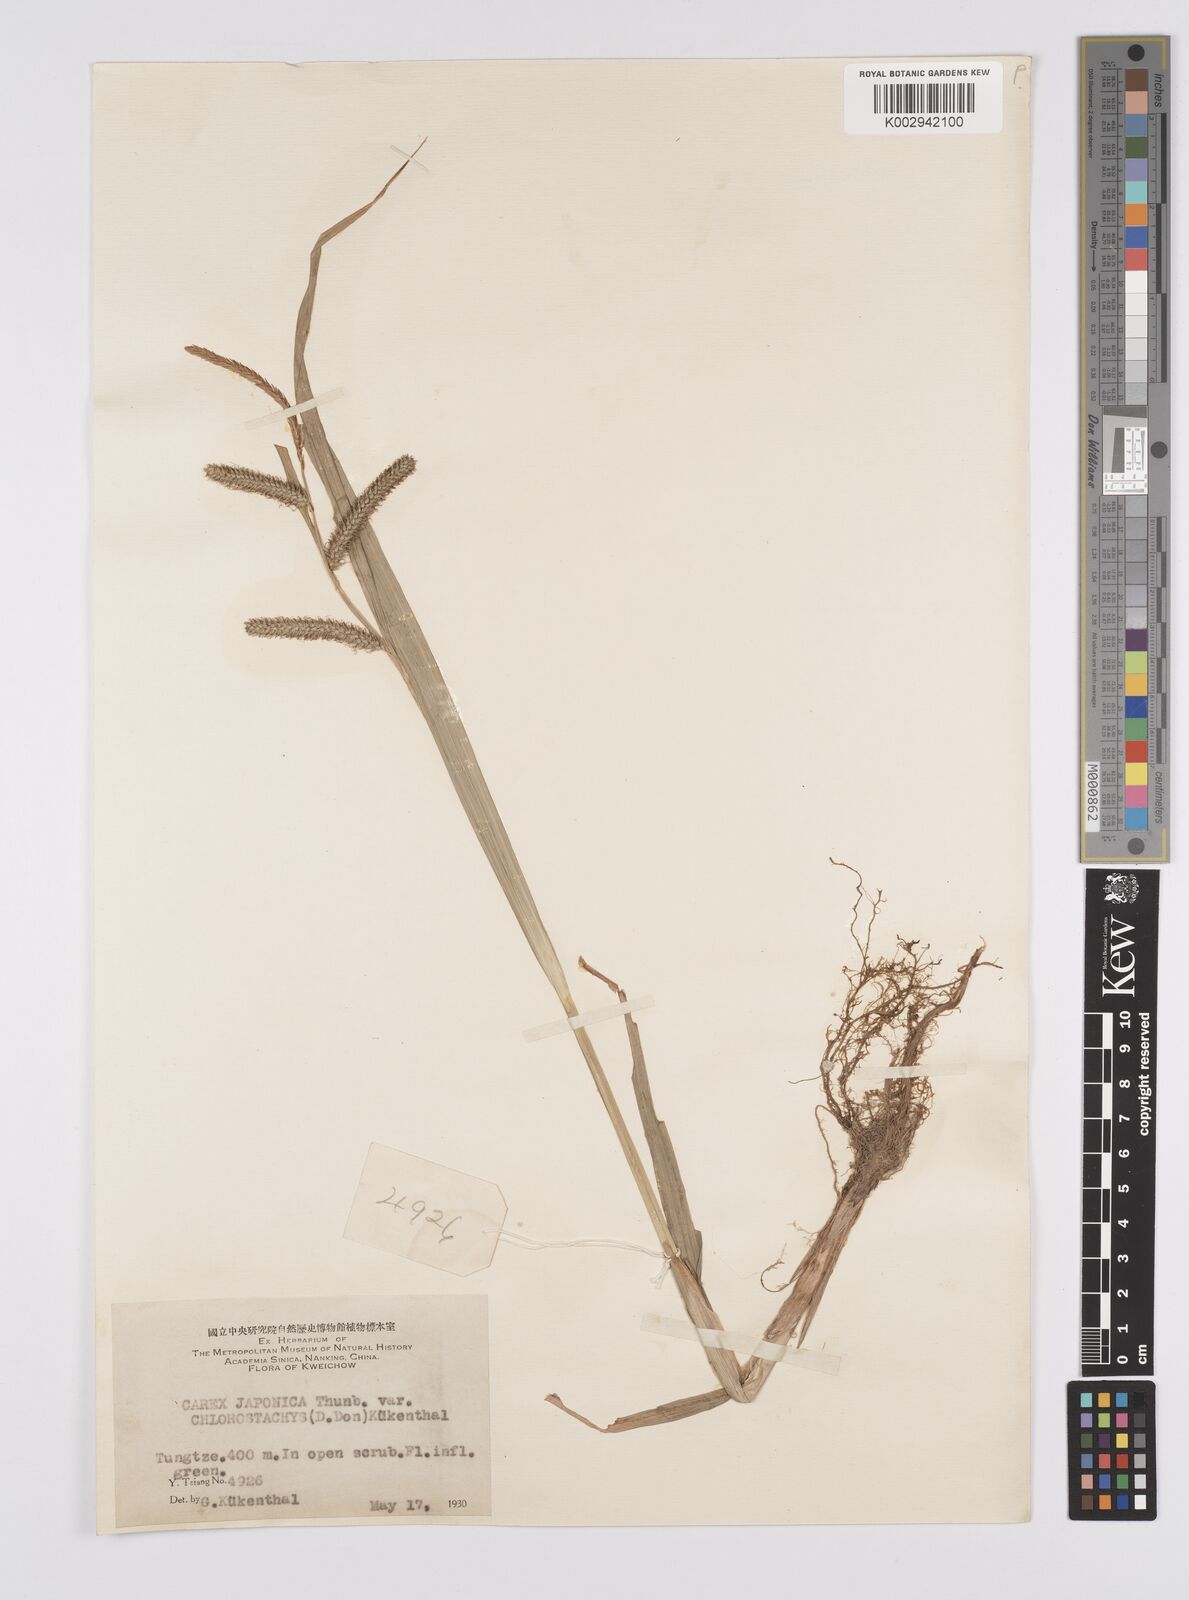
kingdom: Plantae
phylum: Tracheophyta
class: Liliopsida
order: Poales
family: Cyperaceae
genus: Carex
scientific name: Carex japonica
